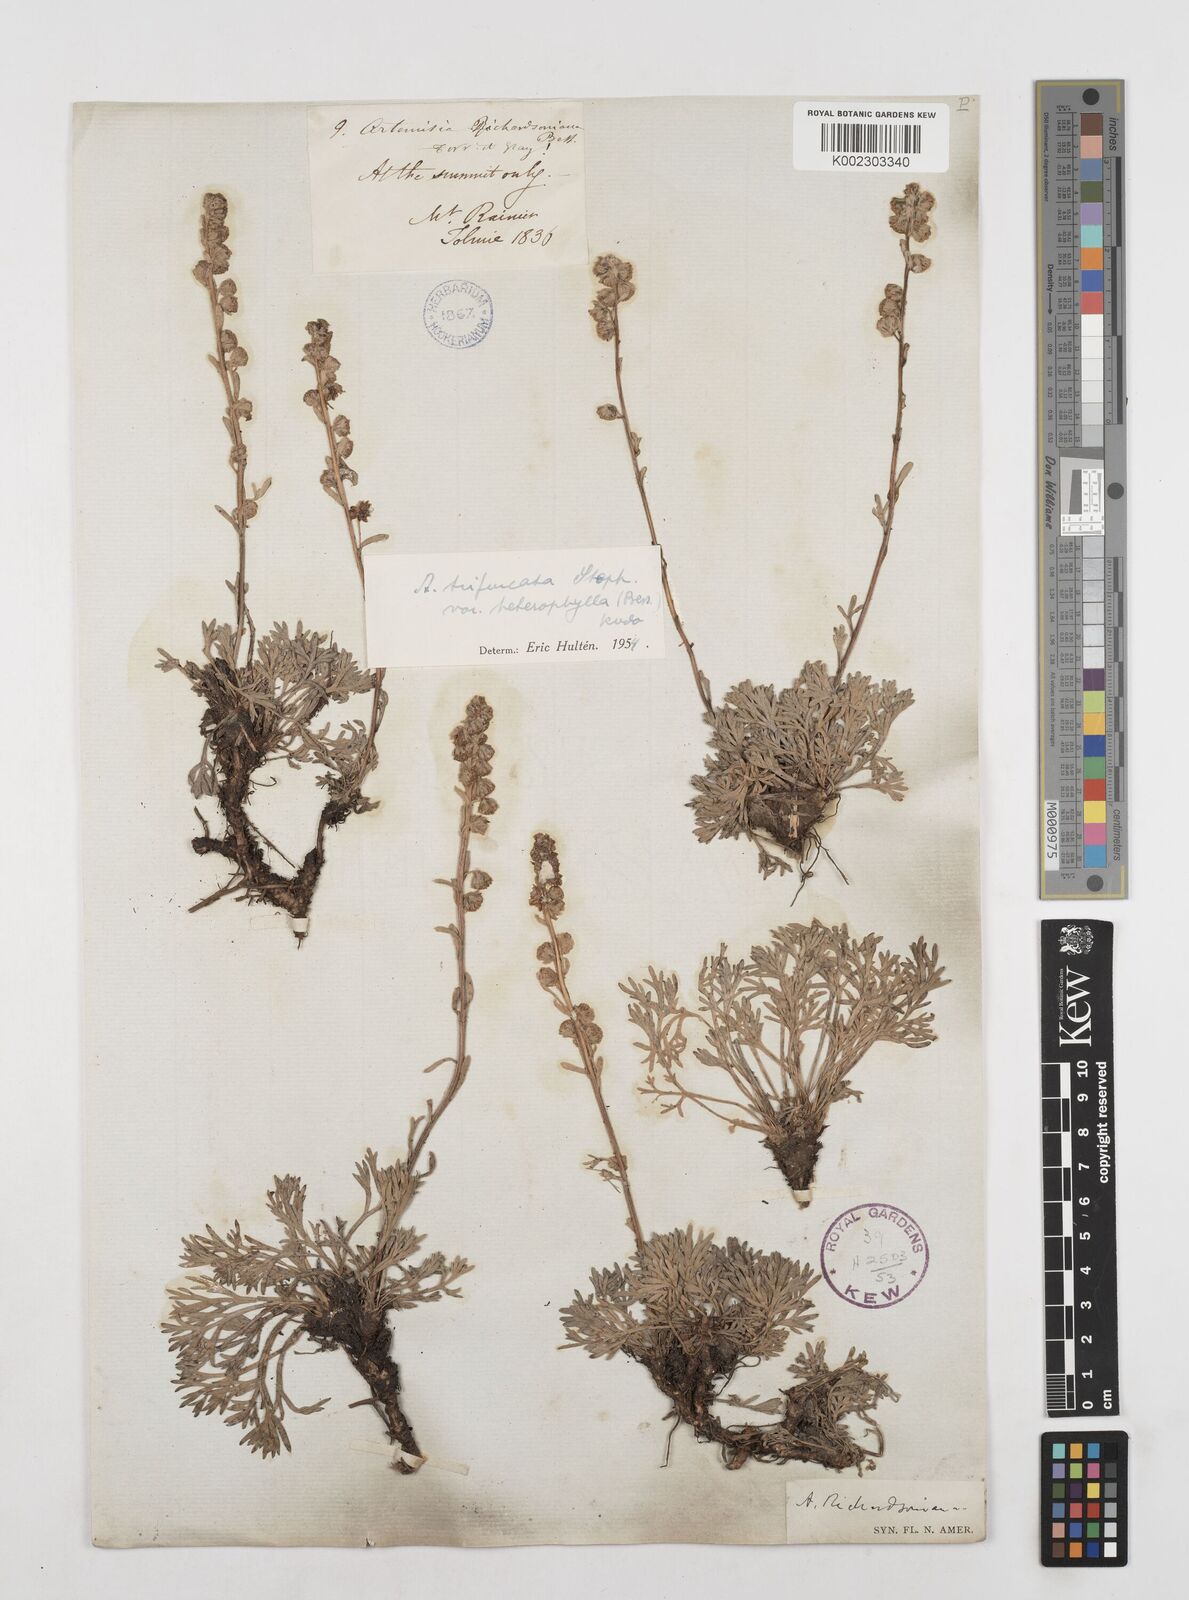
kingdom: Plantae
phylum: Tracheophyta
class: Magnoliopsida
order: Asterales
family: Asteraceae
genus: Artemisia
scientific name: Artemisia furcata
